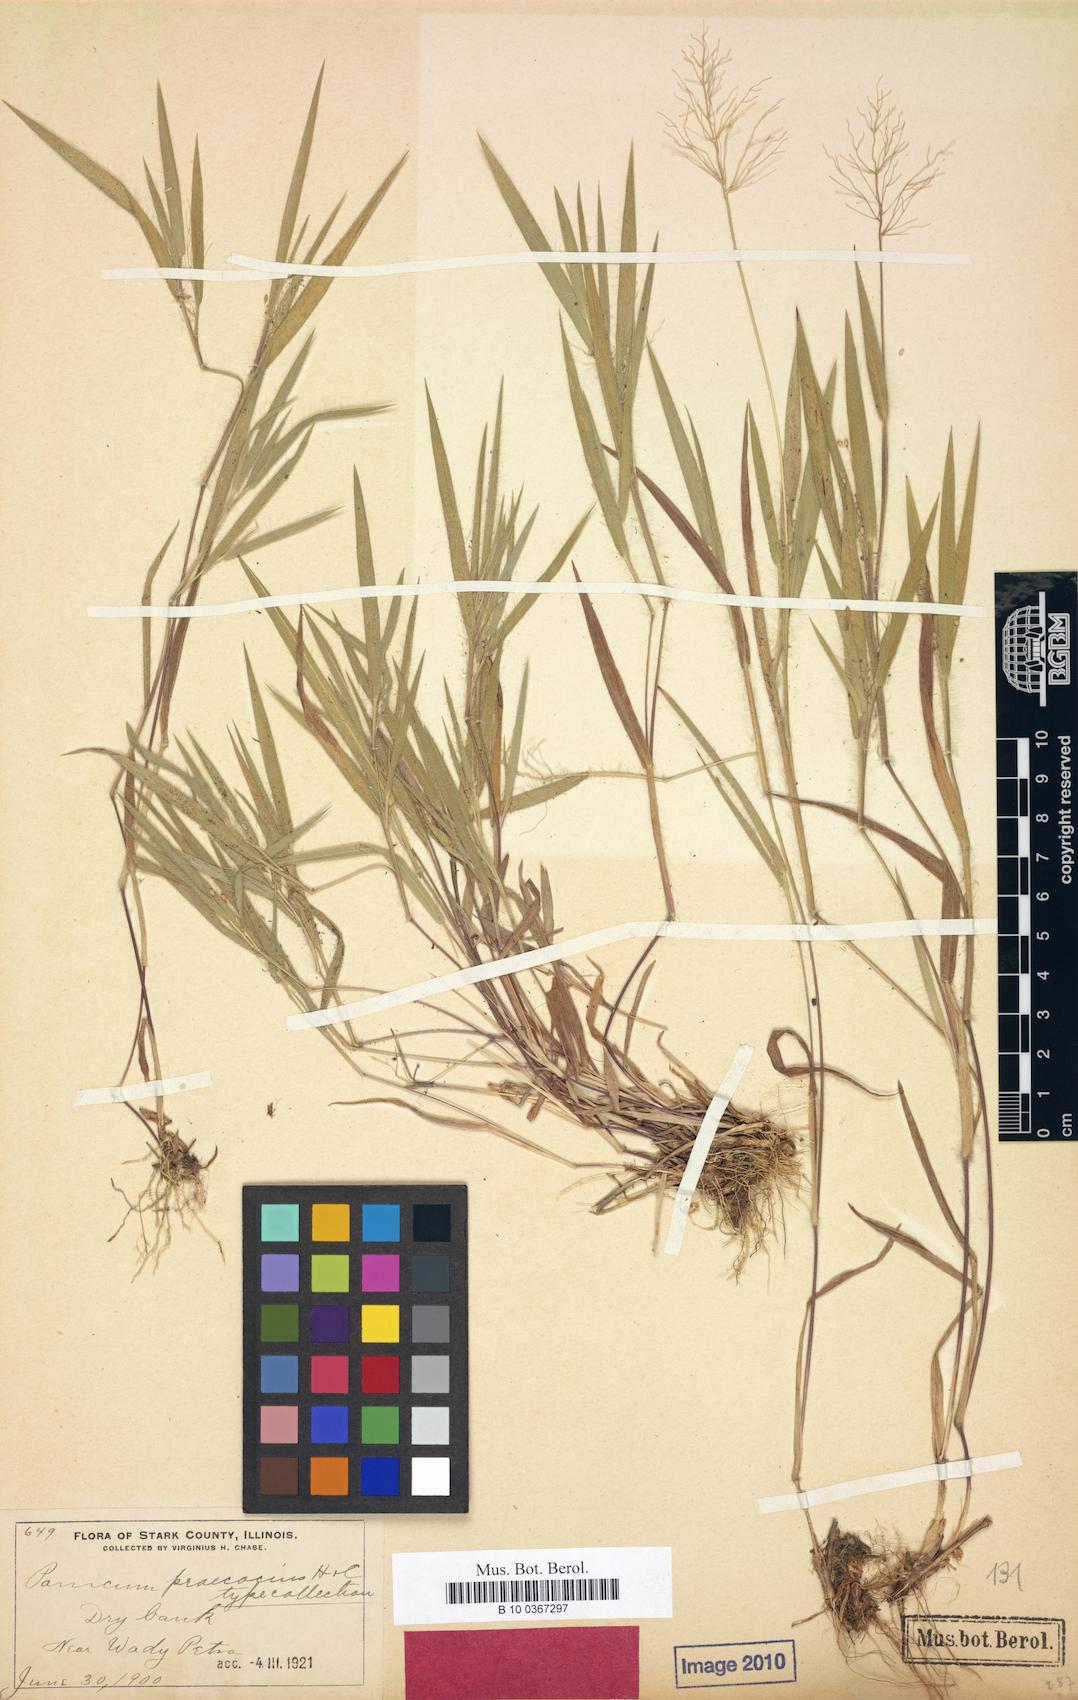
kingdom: Plantae
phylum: Tracheophyta
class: Liliopsida
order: Poales
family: Poaceae
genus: Dichanthelium
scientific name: Dichanthelium praecocius
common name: Early-branching panicgrass
